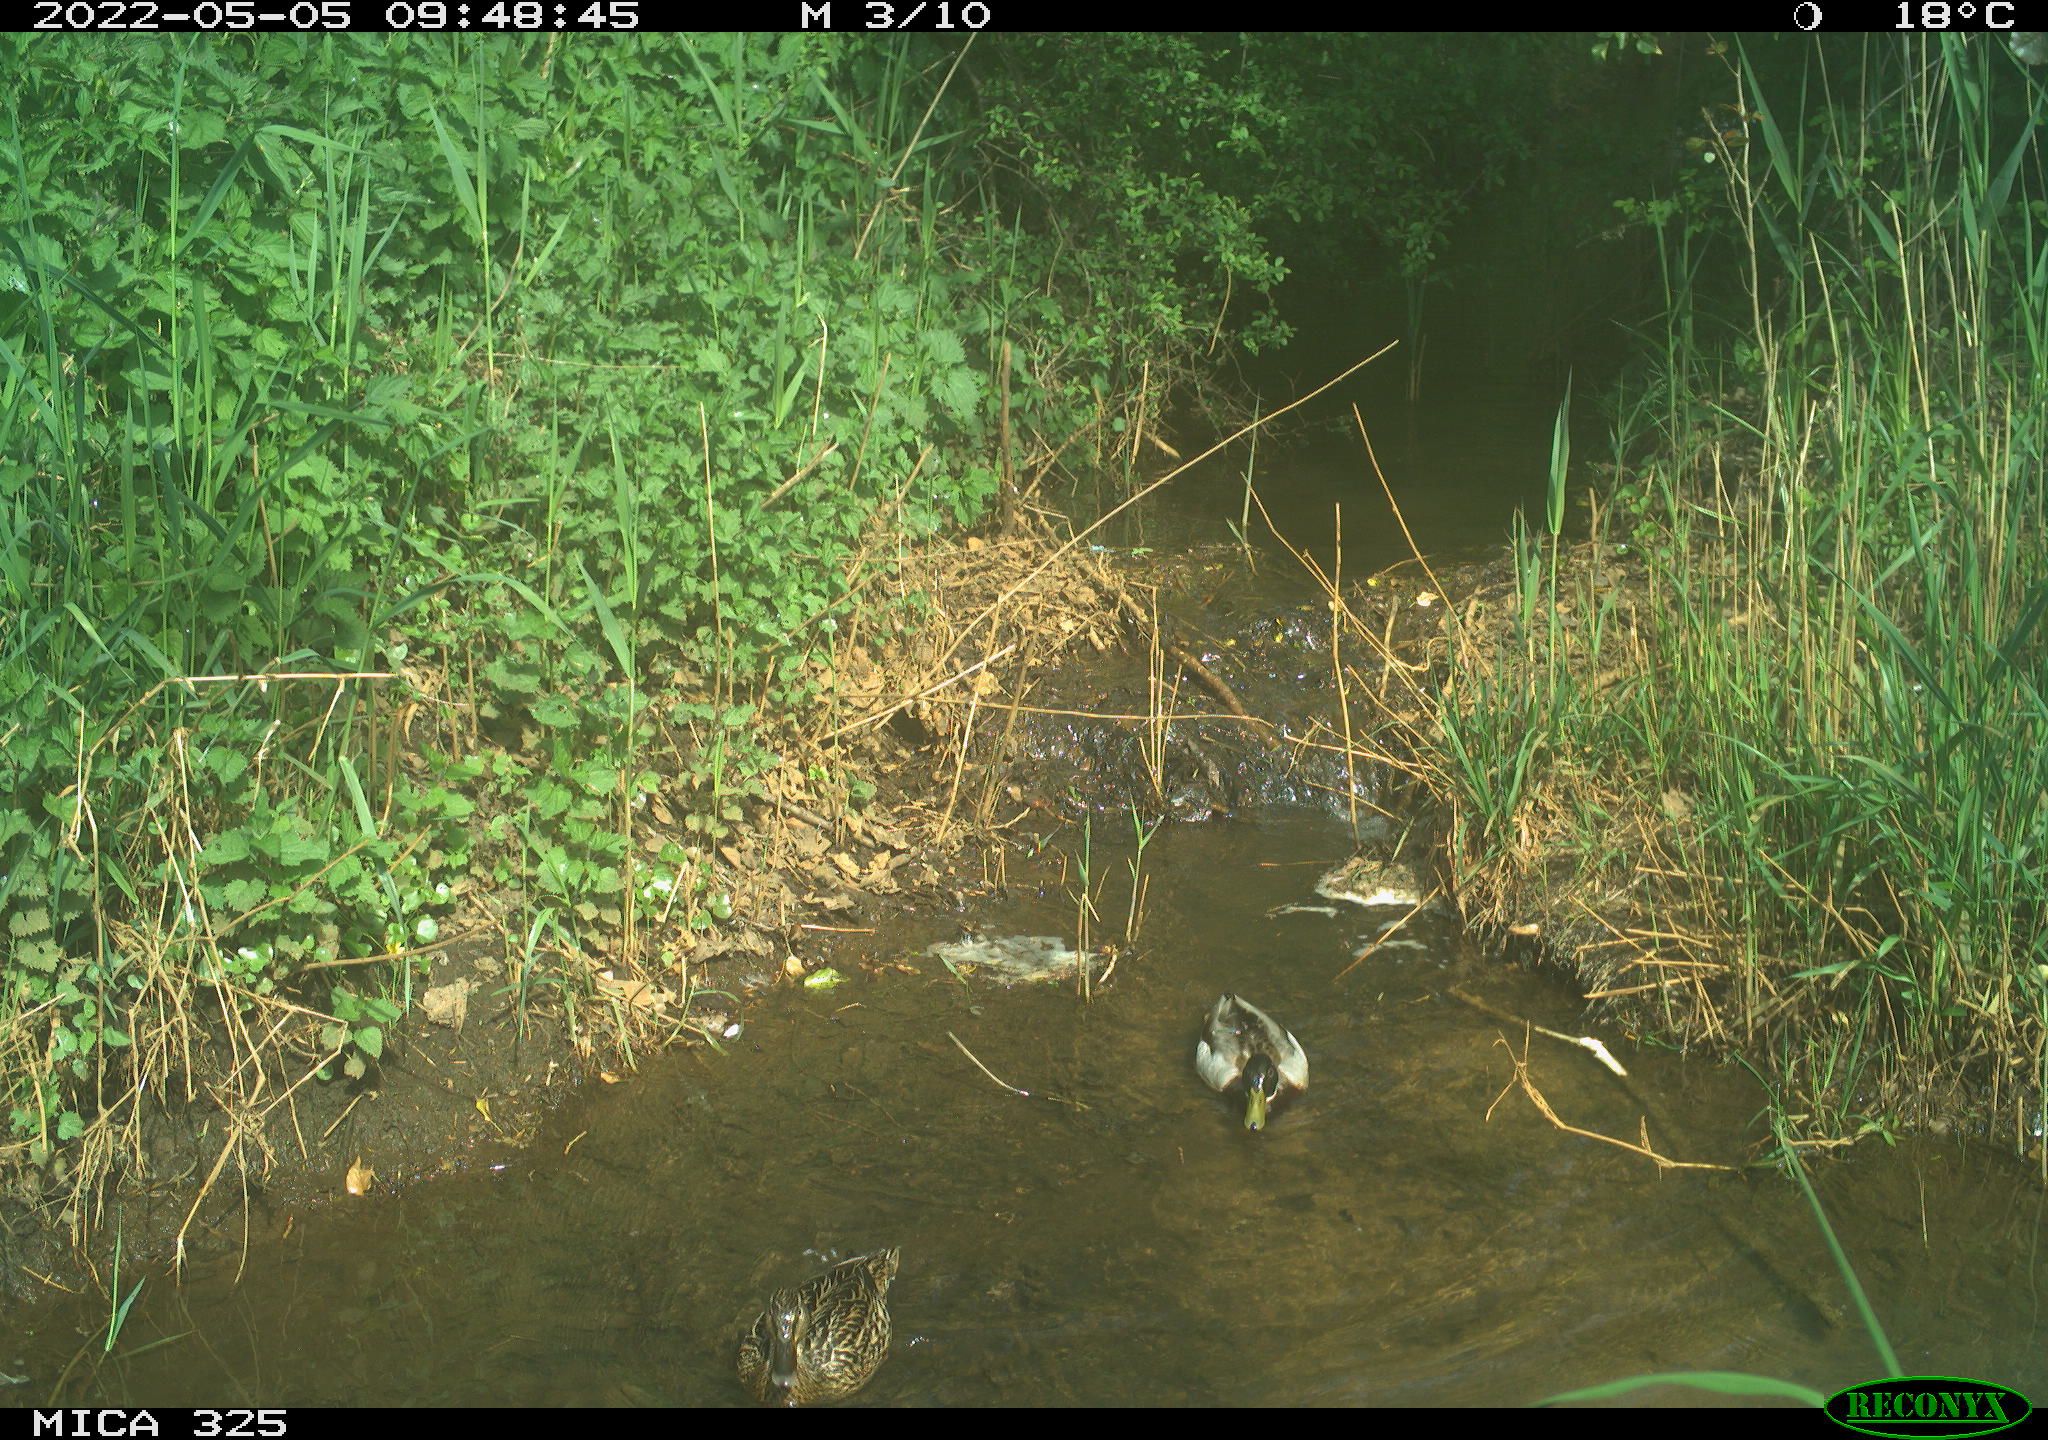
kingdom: Animalia
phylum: Chordata
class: Aves
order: Anseriformes
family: Anatidae
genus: Anas
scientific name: Anas platyrhynchos
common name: Mallard
